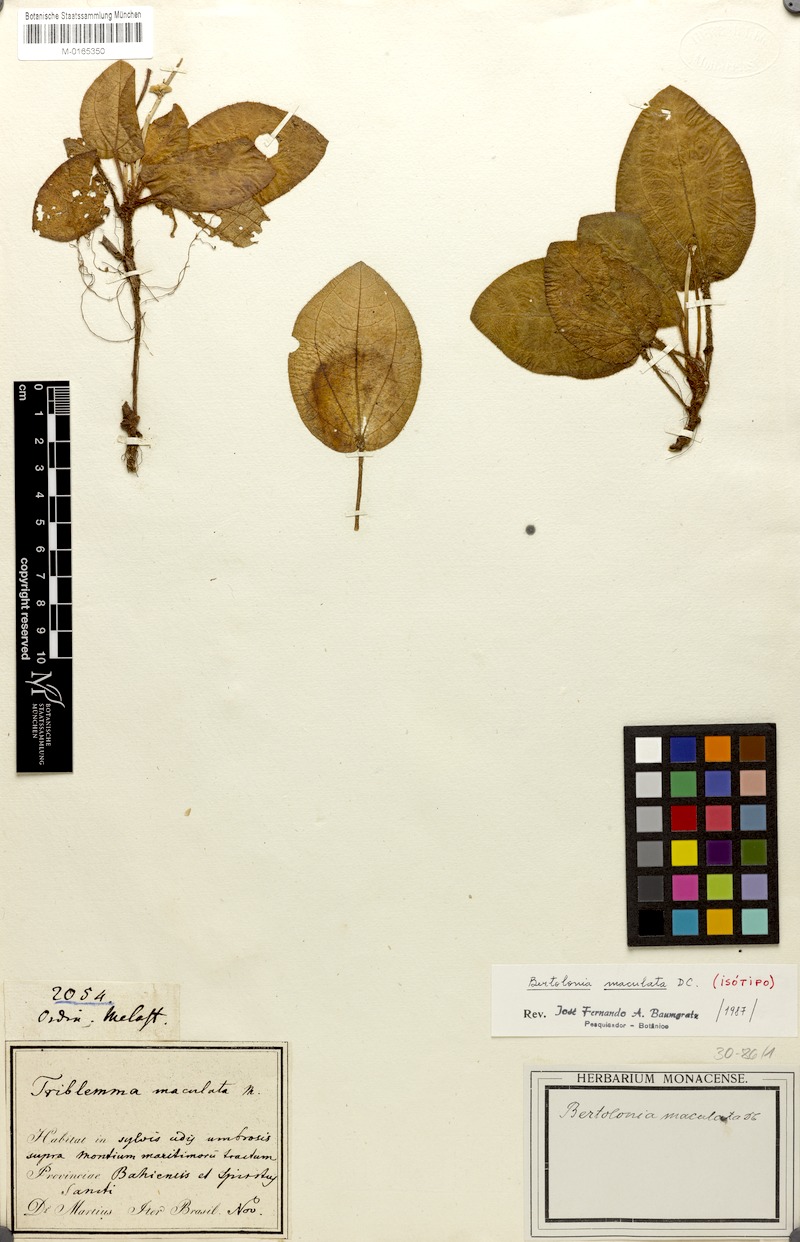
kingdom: Plantae
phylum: Tracheophyta
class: Magnoliopsida
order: Myrtales
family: Melastomataceae
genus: Bertolonia
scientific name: Bertolonia maculata
